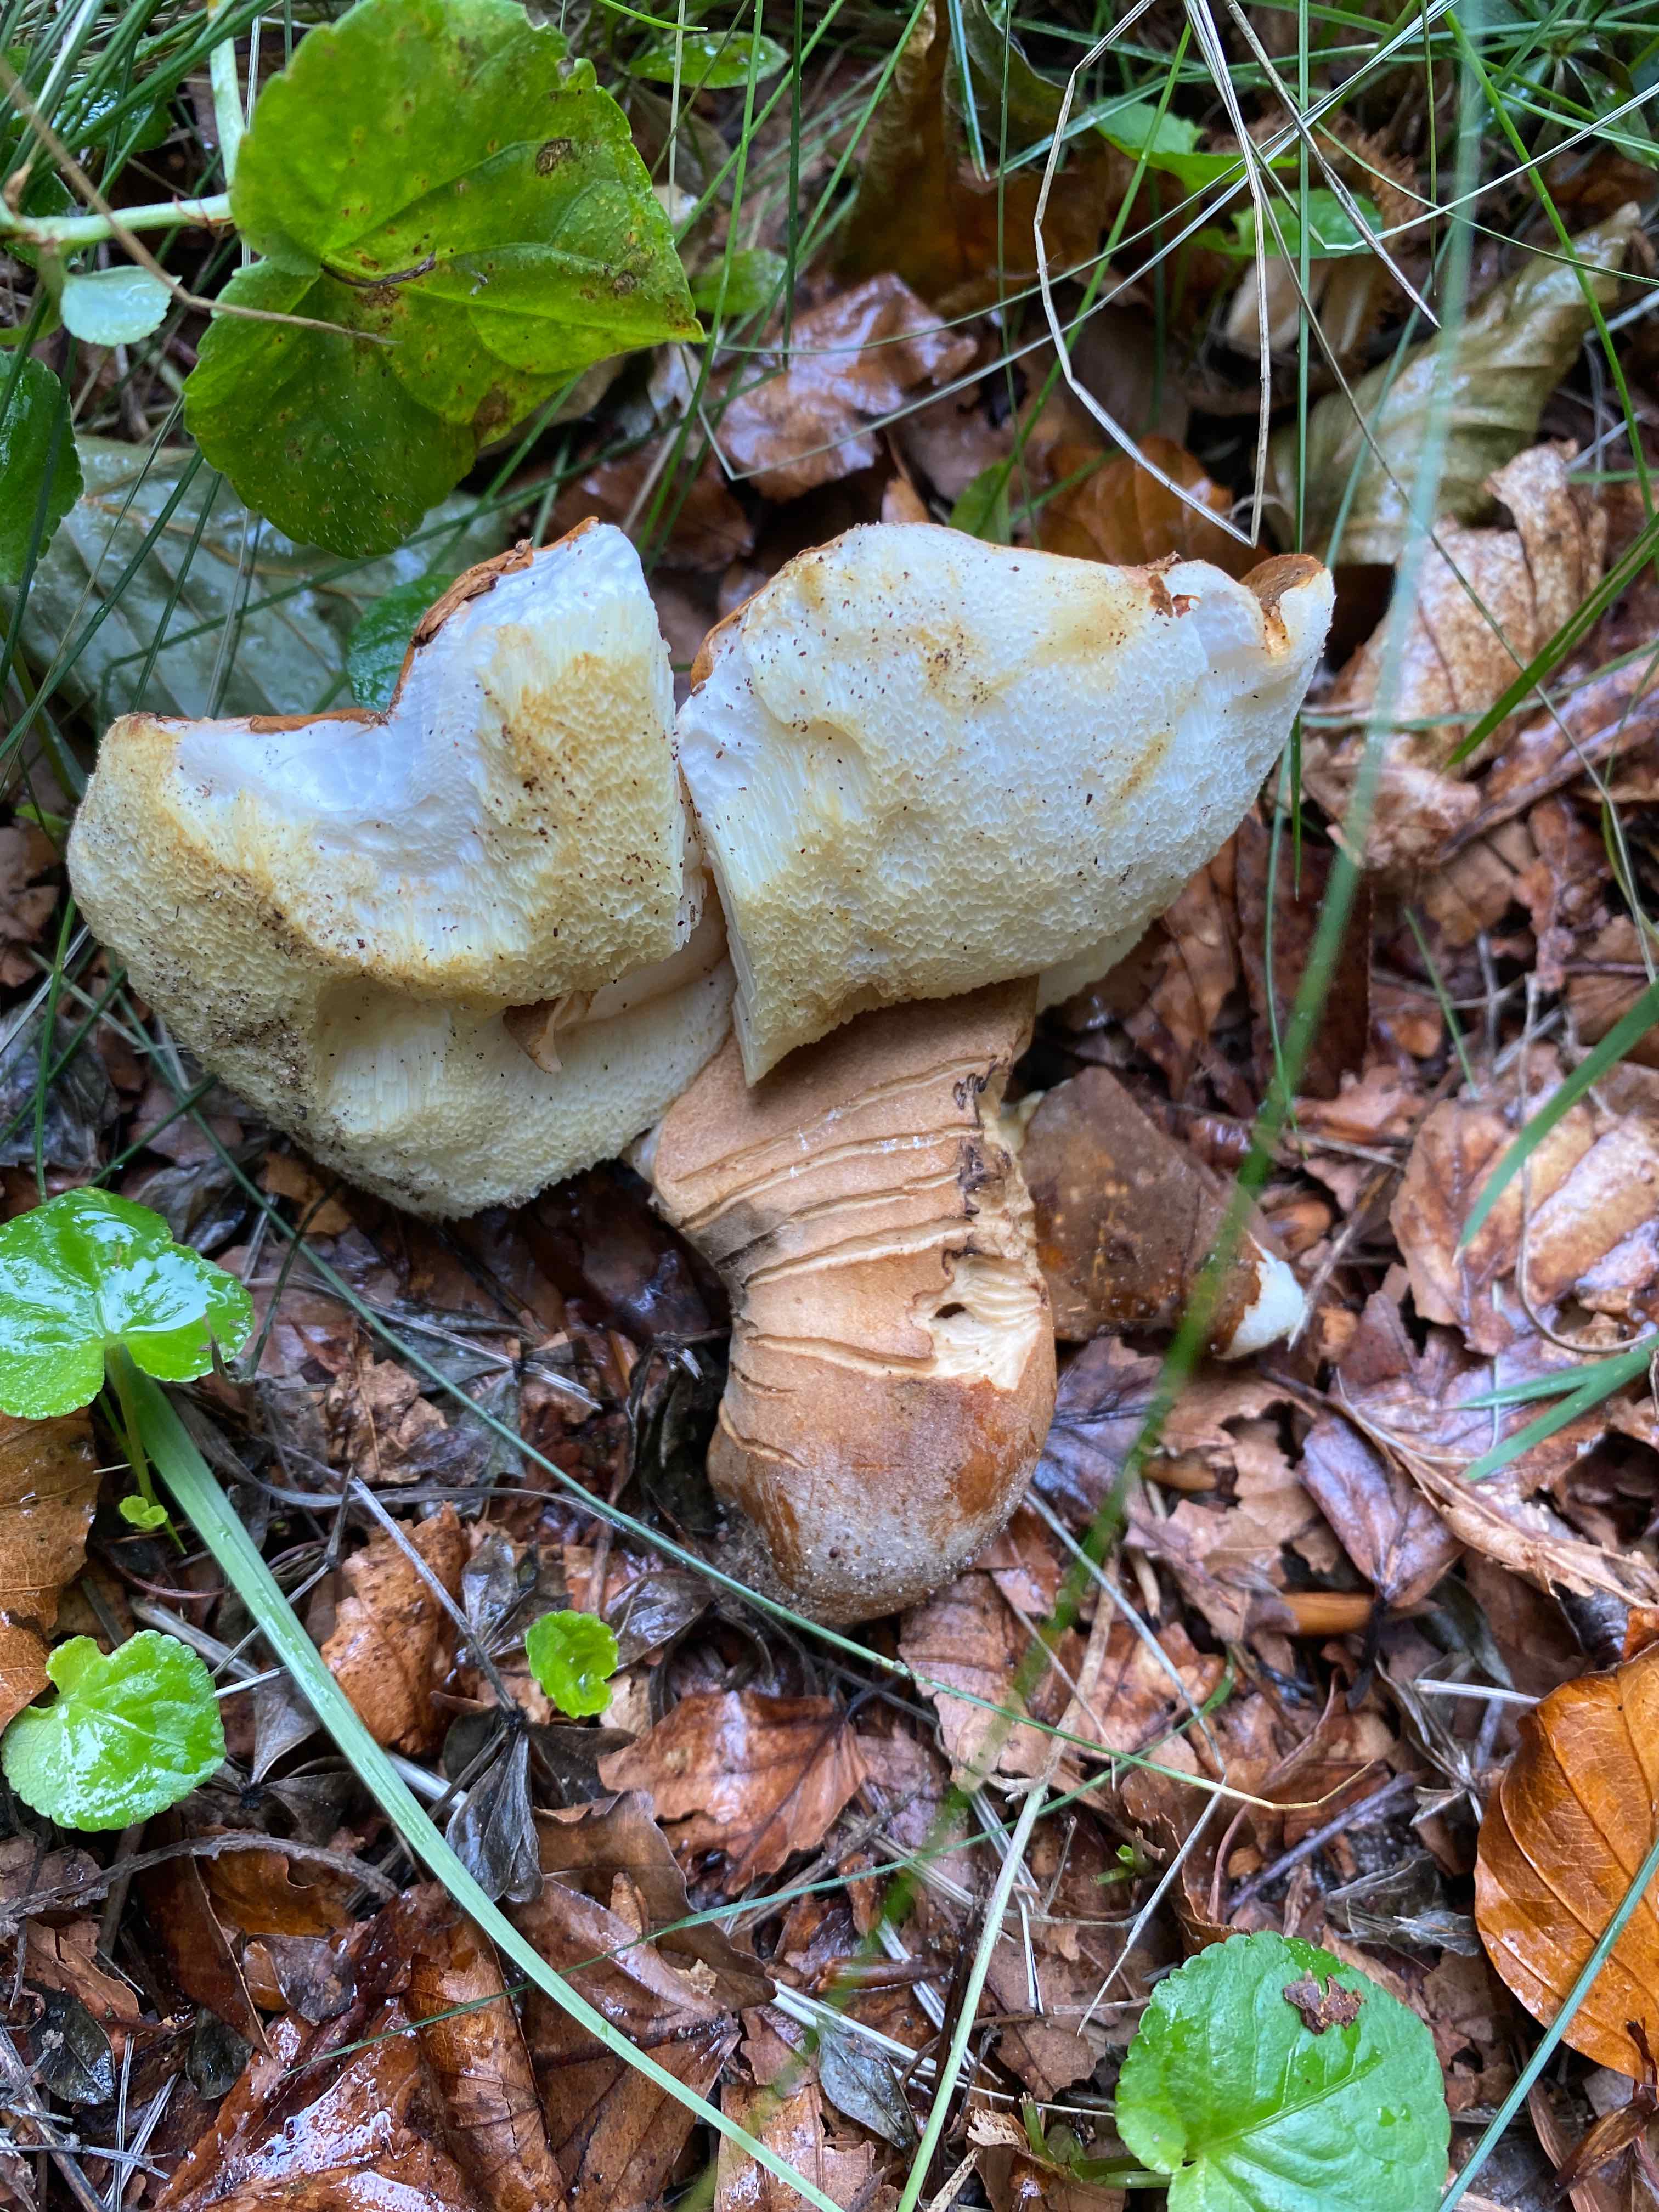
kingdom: Fungi
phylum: Basidiomycota
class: Agaricomycetes
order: Boletales
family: Gyroporaceae
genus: Gyroporus
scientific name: Gyroporus castaneus
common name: kastanie-kammerrørhat
